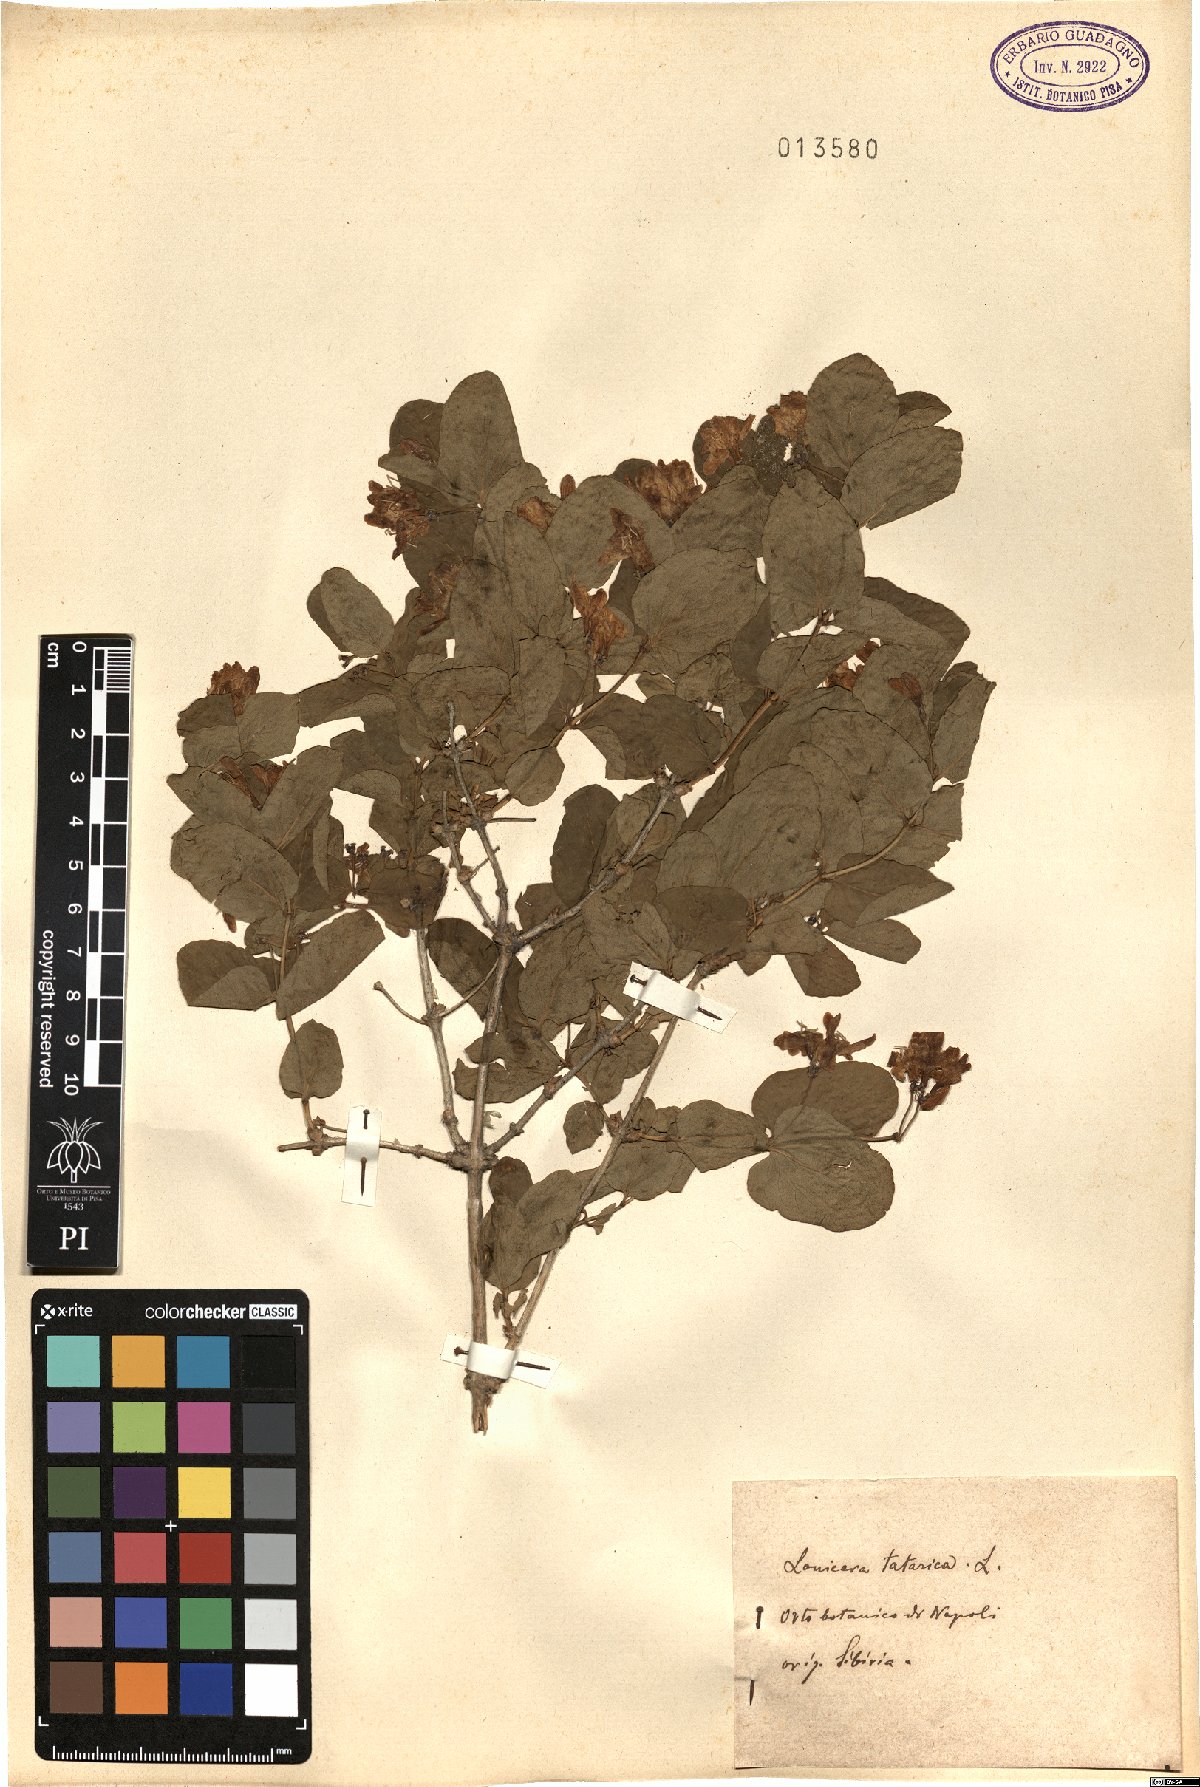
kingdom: Plantae
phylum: Tracheophyta
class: Magnoliopsida
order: Dipsacales
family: Caprifoliaceae
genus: Lonicera
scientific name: Lonicera tatarica
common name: Tatarian honeysuckle
